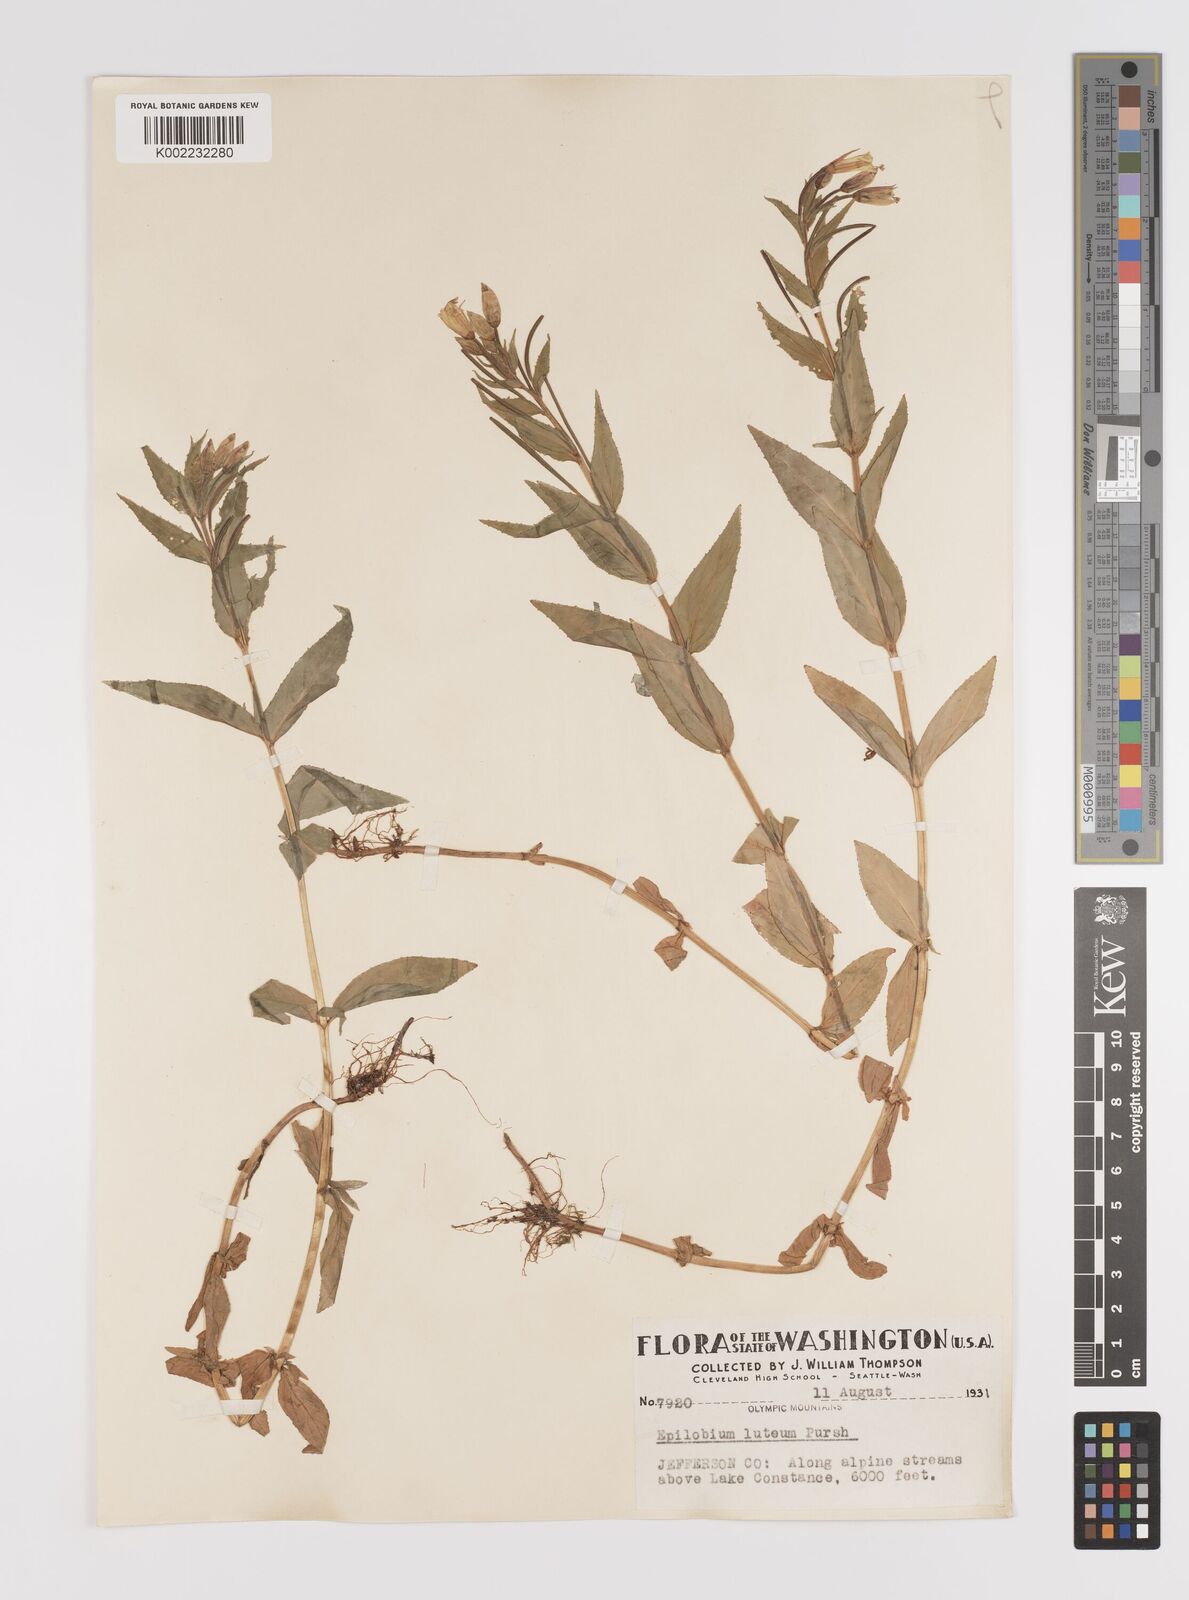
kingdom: Plantae
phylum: Tracheophyta
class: Magnoliopsida
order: Myrtales
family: Onagraceae
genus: Epilobium
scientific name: Epilobium luteum
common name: Yellow willowherb
